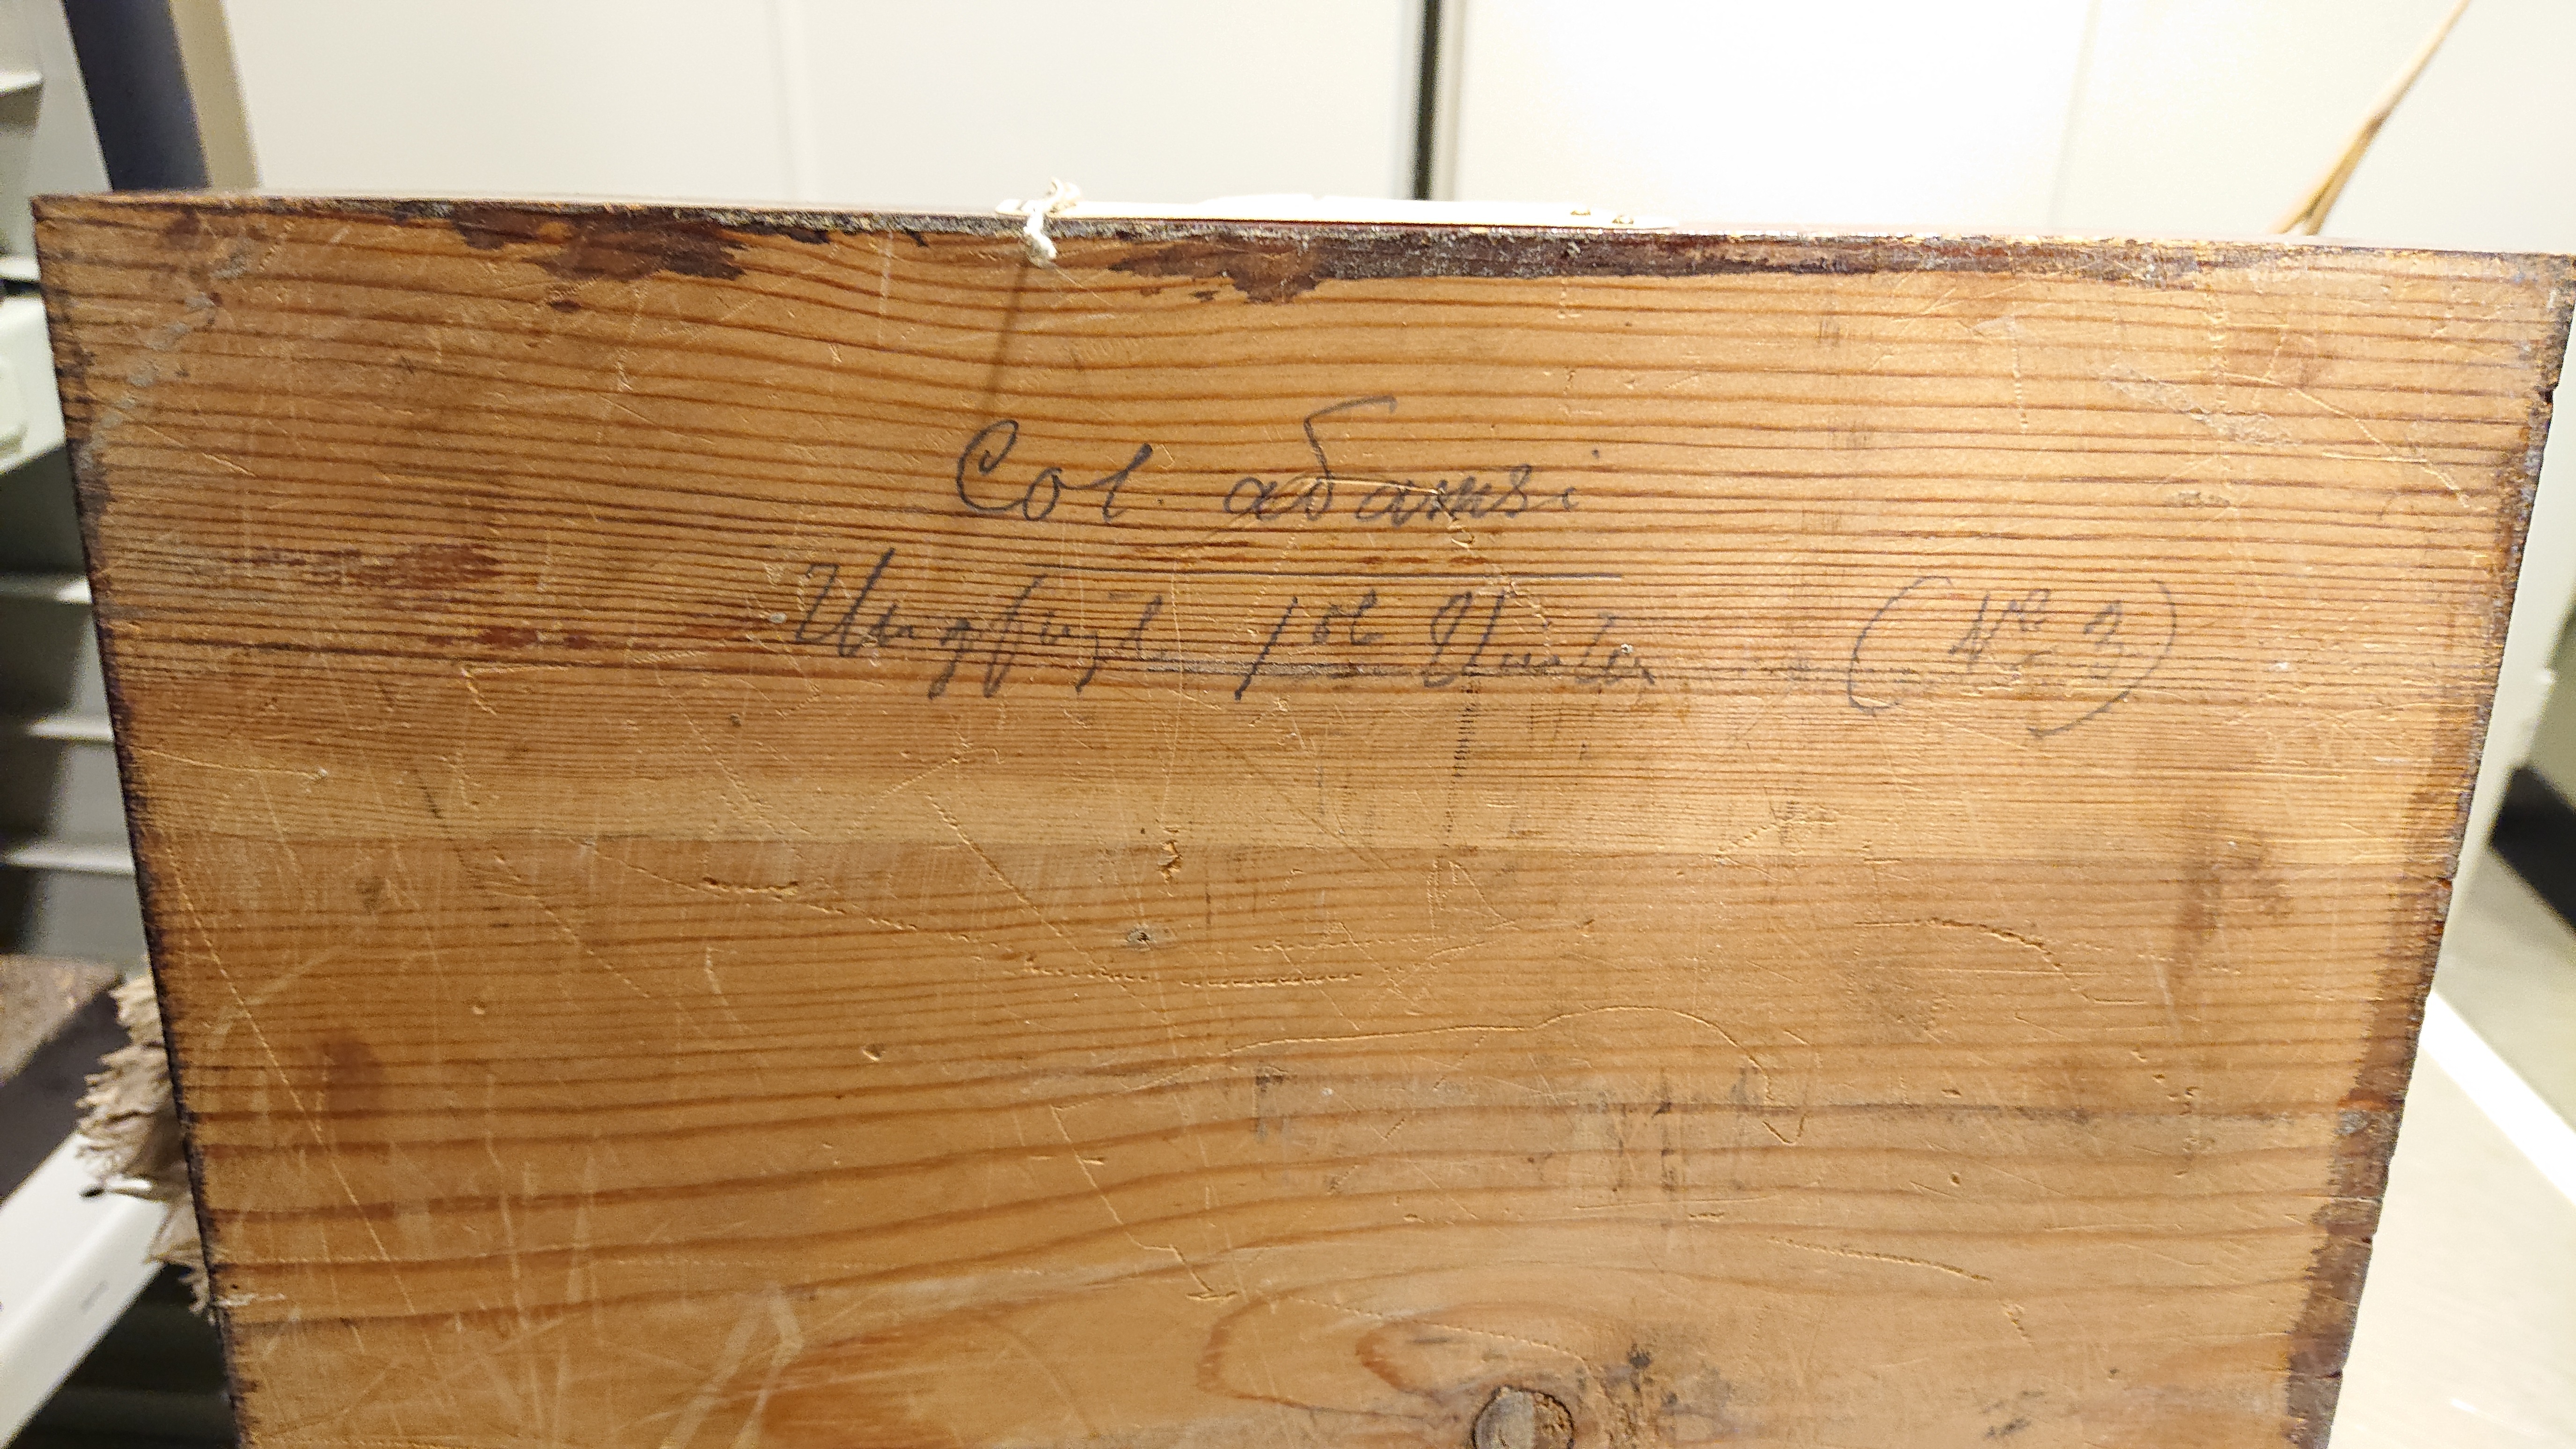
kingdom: Animalia
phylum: Chordata
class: Aves
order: Gaviiformes
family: Gaviidae
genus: Gavia
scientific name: Gavia adamsii
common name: Yellow-billed loon
